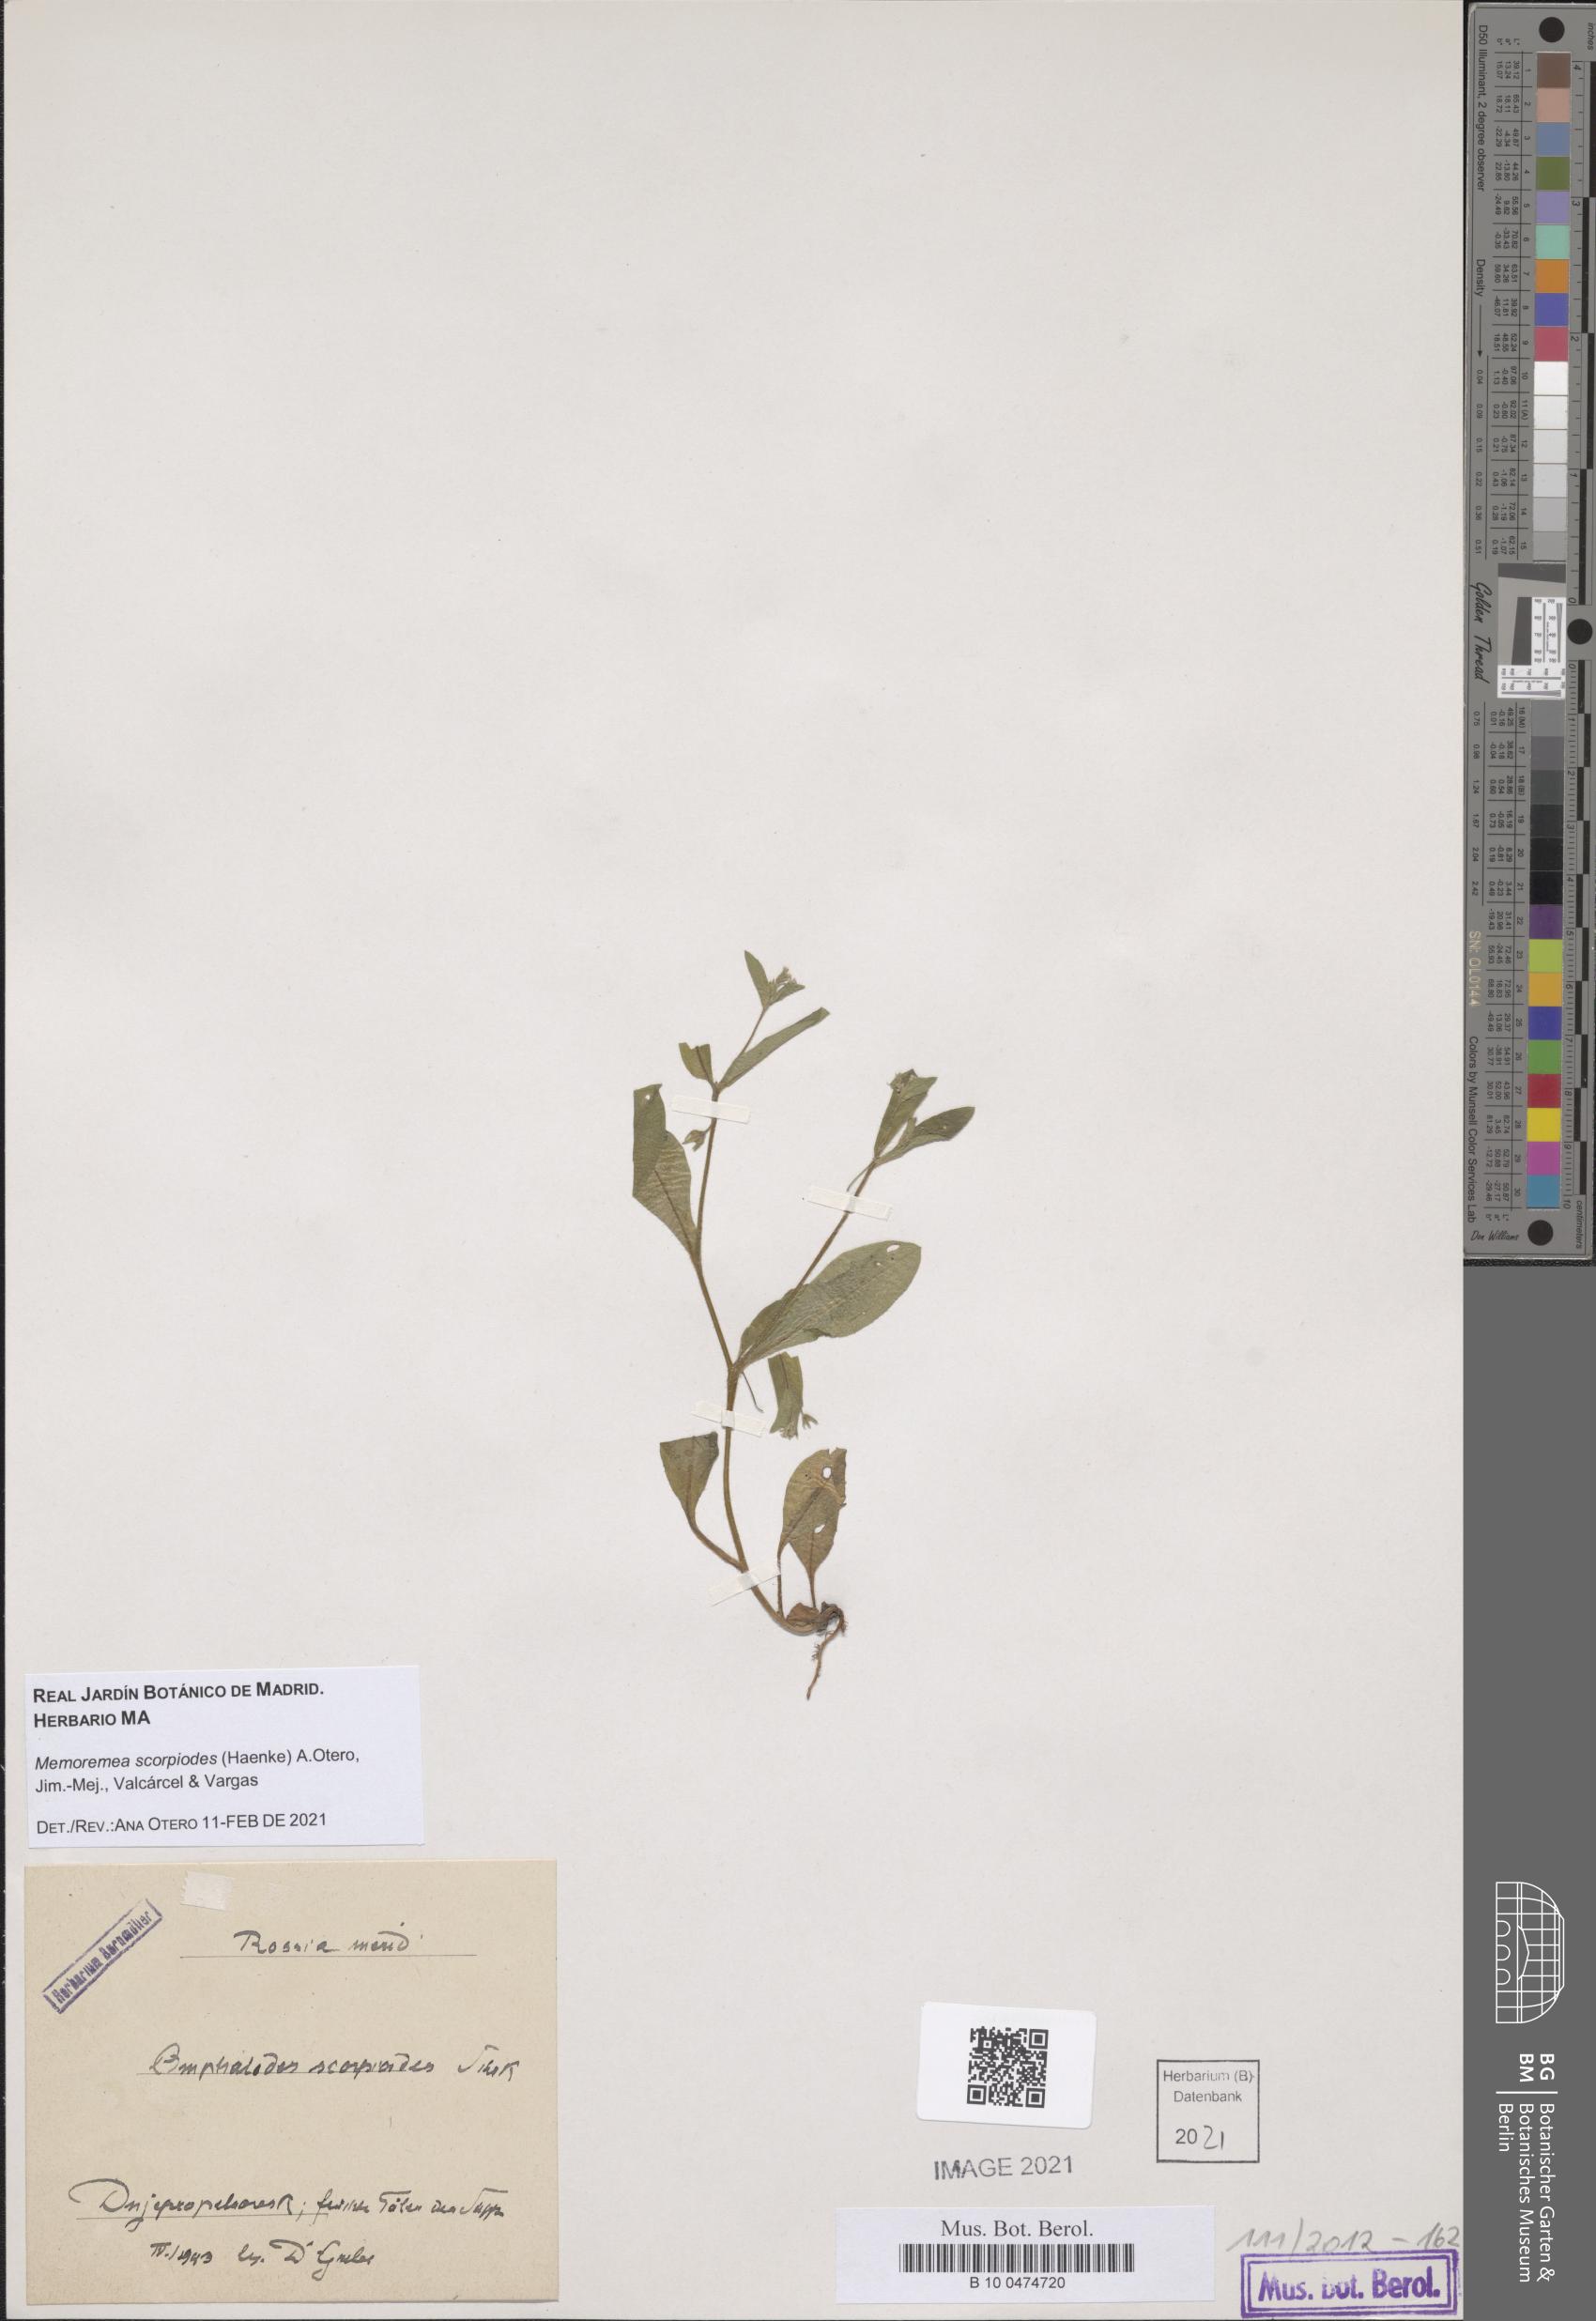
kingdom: Plantae
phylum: Tracheophyta
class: Magnoliopsida
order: Boraginales
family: Boraginaceae
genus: Memoremea
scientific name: Memoremea scorpioides
